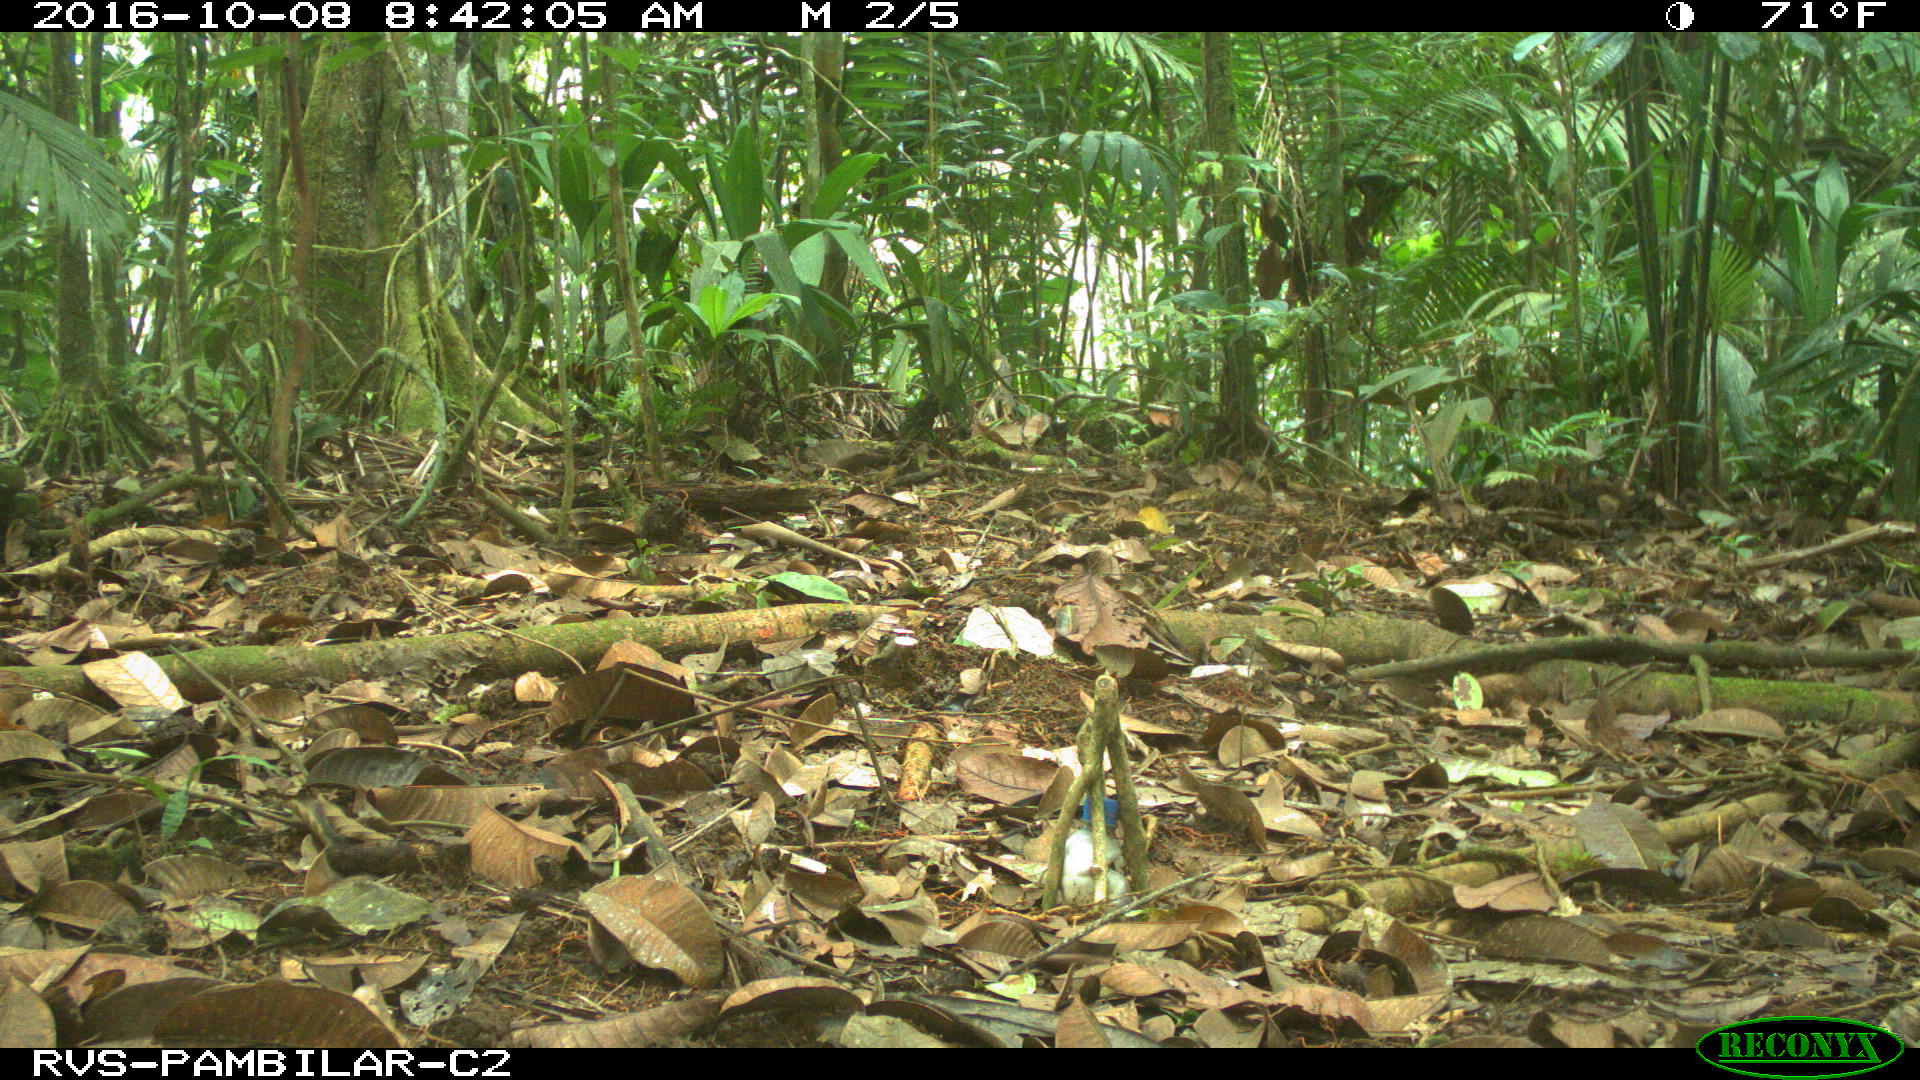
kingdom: Animalia
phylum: Chordata
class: Mammalia
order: Rodentia
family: Dasyproctidae
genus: Dasyprocta
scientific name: Dasyprocta punctata
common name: Central american agouti
